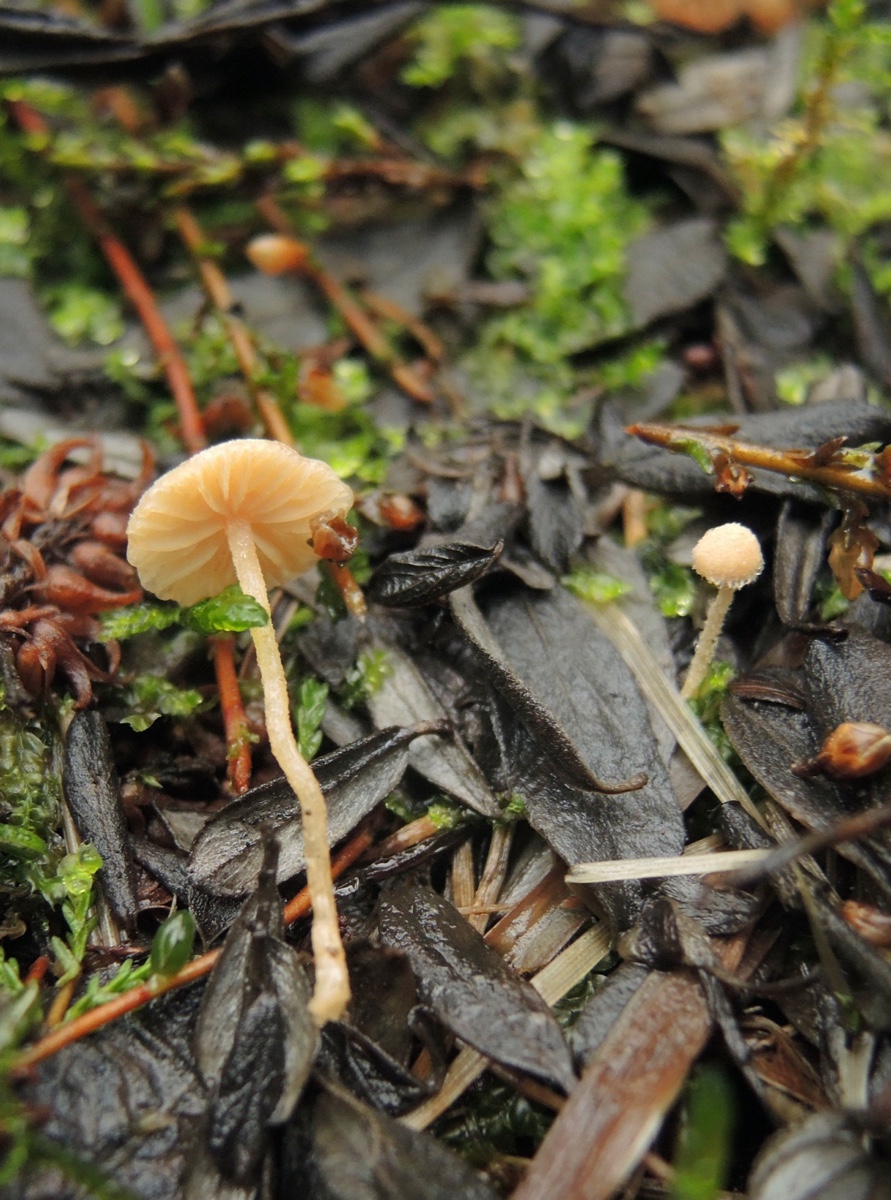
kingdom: Fungi
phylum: Basidiomycota
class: Agaricomycetes
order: Agaricales
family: Tubariaceae
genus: Flammulaster
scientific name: Flammulaster carpophilus
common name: bøge-grynskælhat
